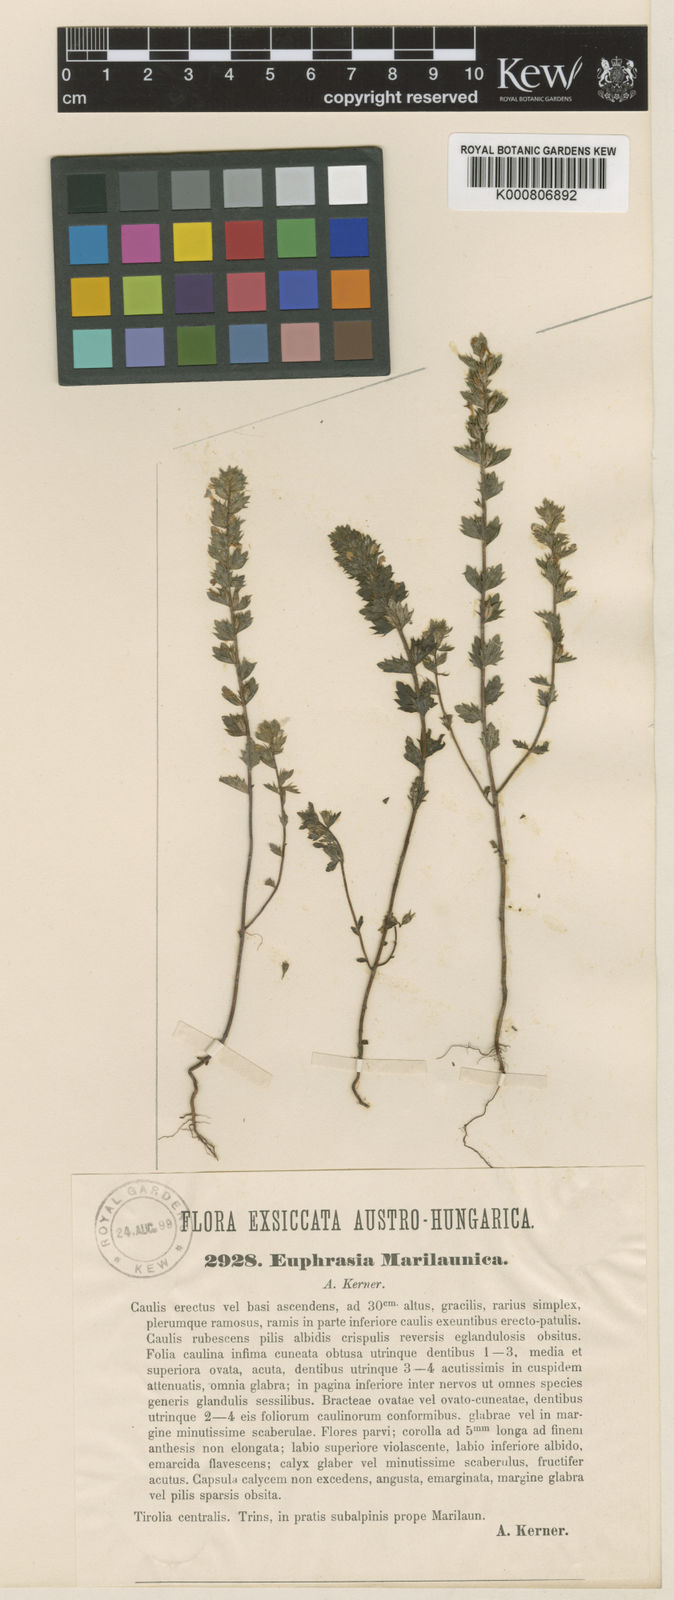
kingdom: Plantae
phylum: Tracheophyta
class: Magnoliopsida
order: Lamiales
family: Orobanchaceae
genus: Euphrasia
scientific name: Euphrasia salisburgensis
